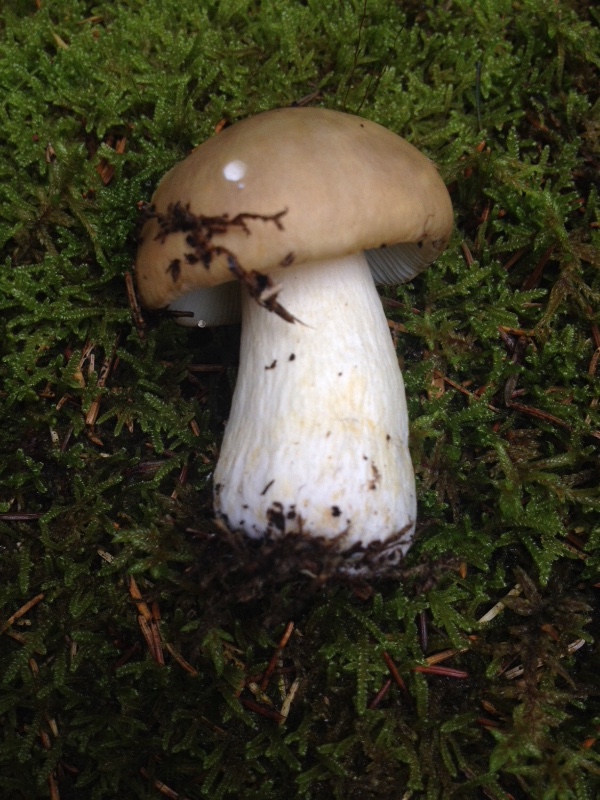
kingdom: Fungi
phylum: Basidiomycota
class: Agaricomycetes
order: Russulales
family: Russulaceae
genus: Russula
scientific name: Russula
